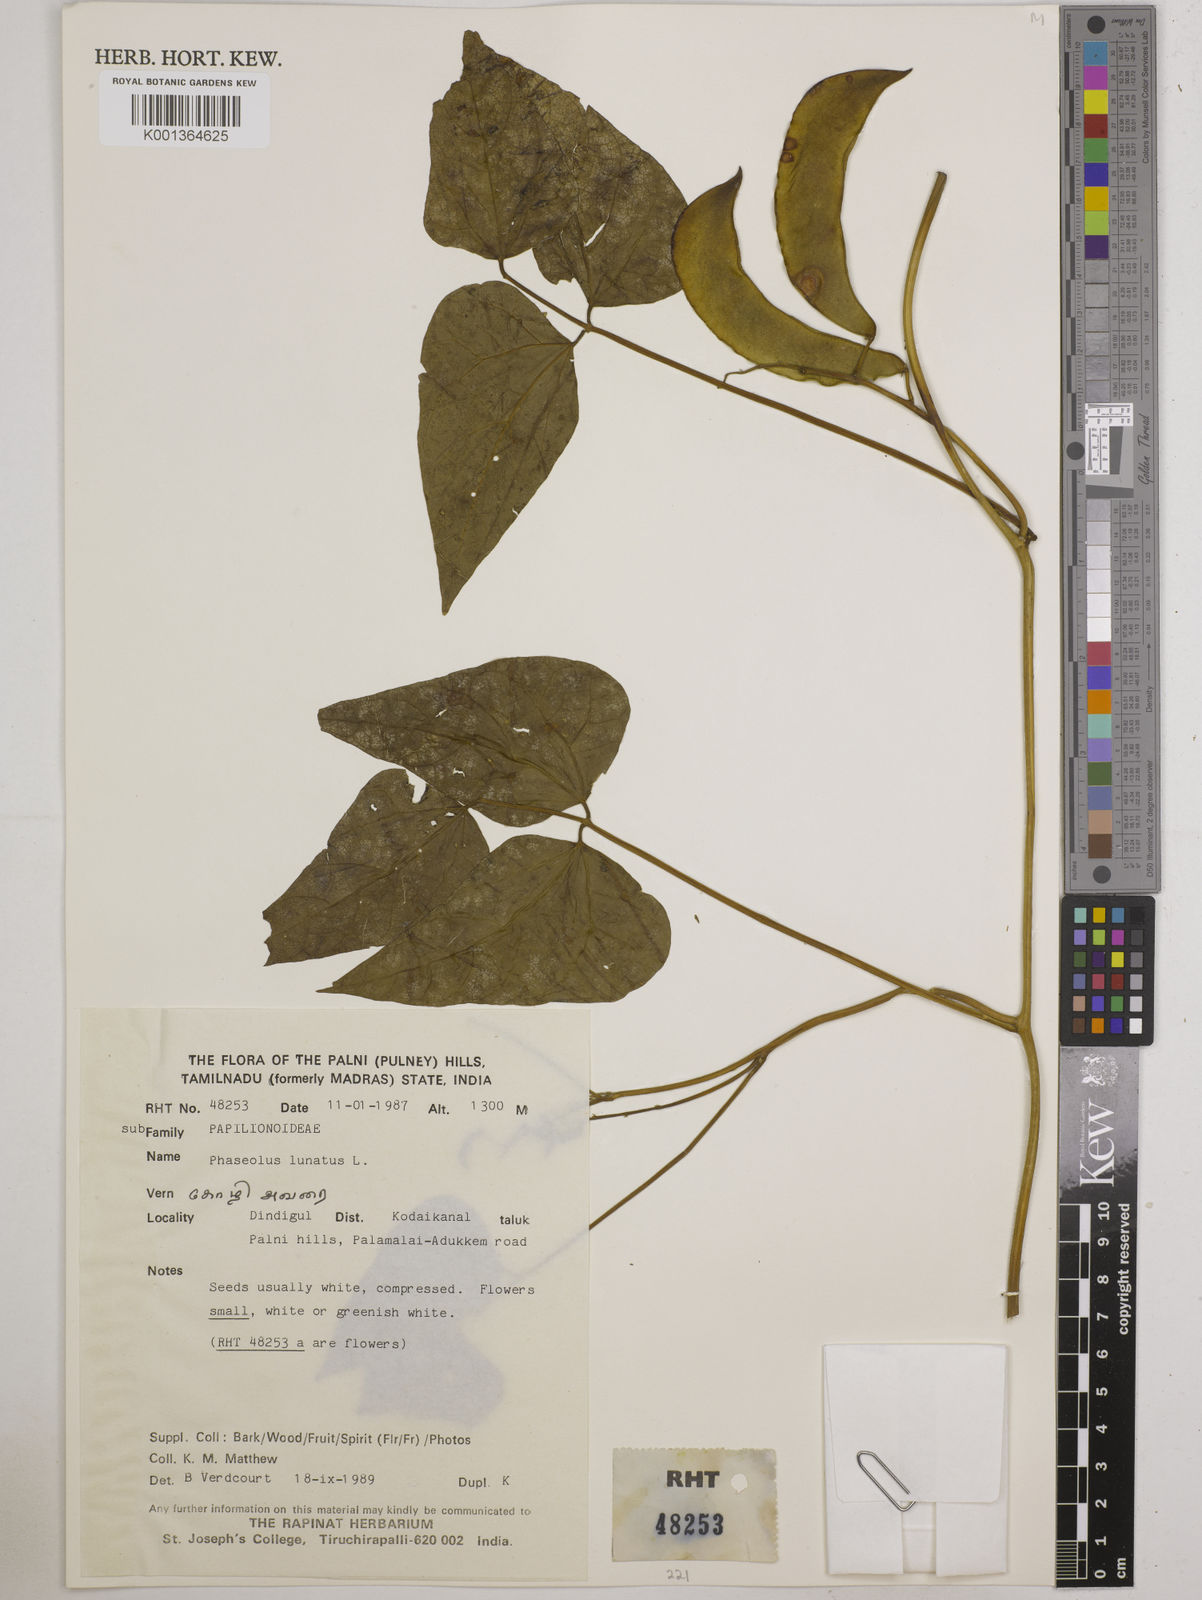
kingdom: Plantae
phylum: Tracheophyta
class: Magnoliopsida
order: Fabales
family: Fabaceae
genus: Phaseolus
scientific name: Phaseolus lunatus
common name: Sieva bean
